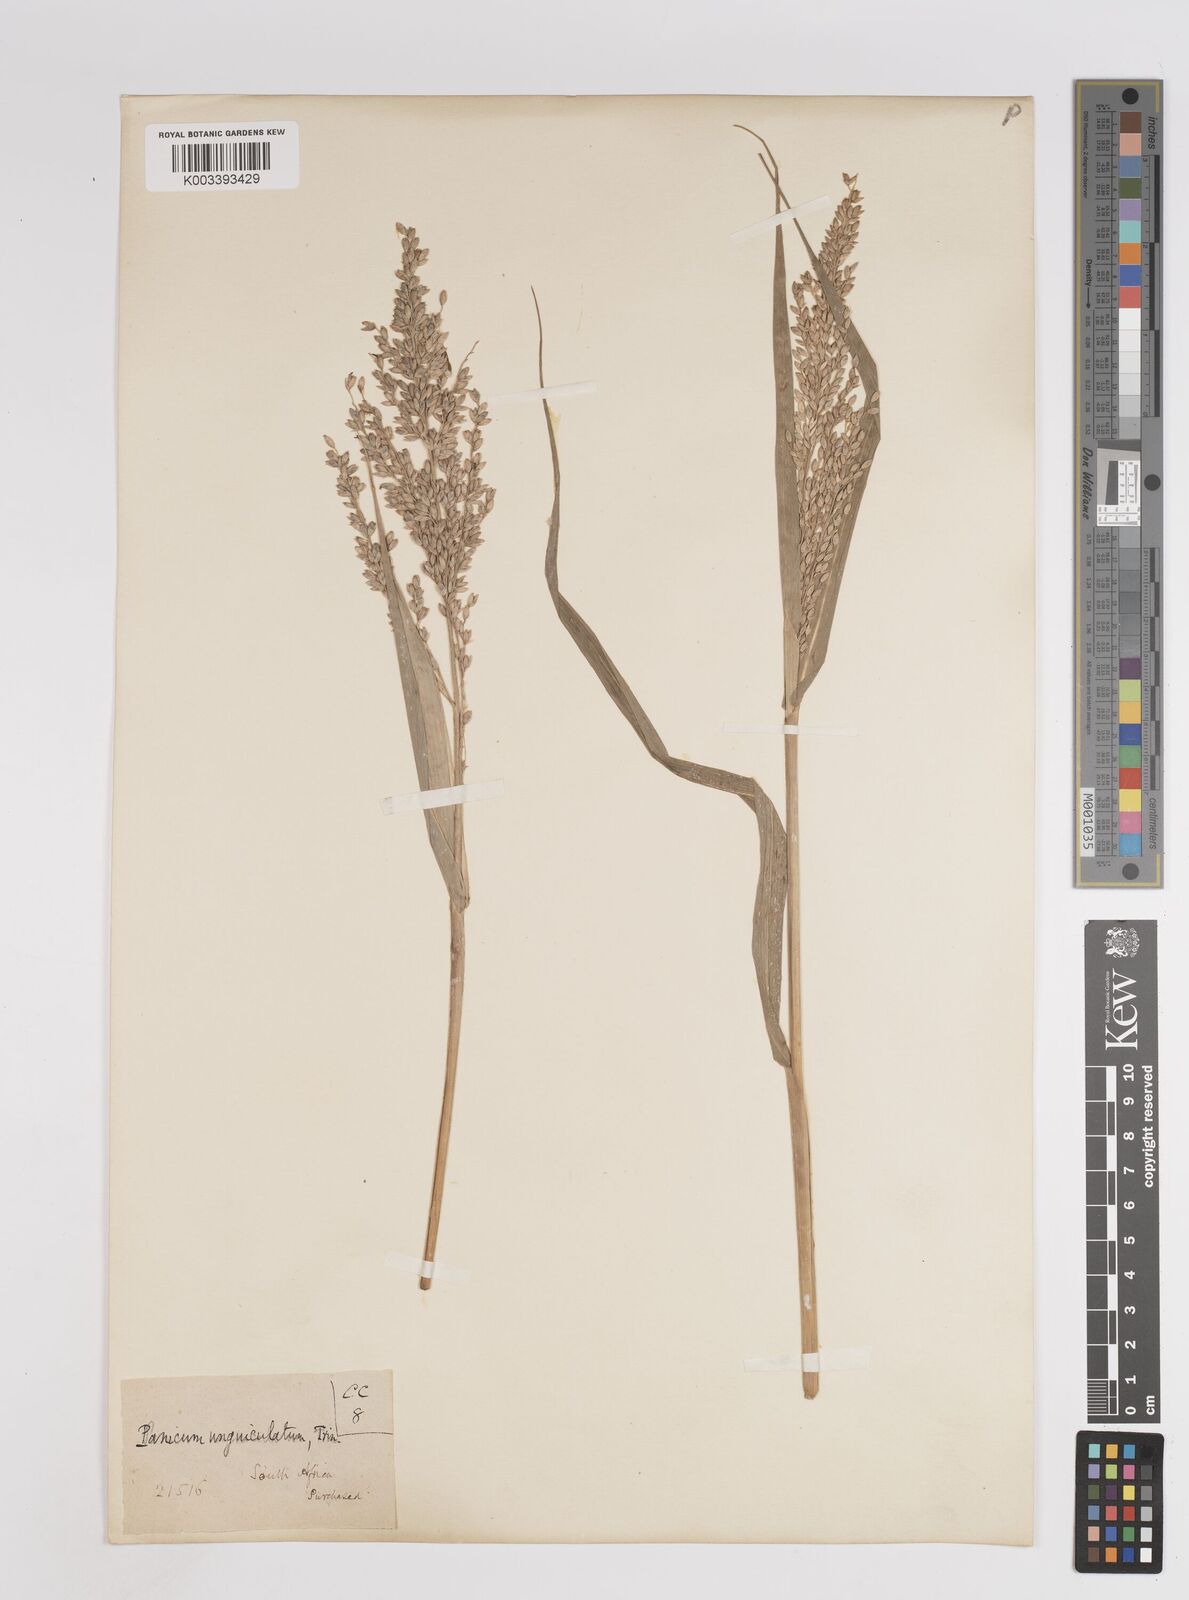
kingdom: Plantae
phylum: Tracheophyta
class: Liliopsida
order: Poales
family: Poaceae
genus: Panicum
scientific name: Panicum deustum
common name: Reed panicum
